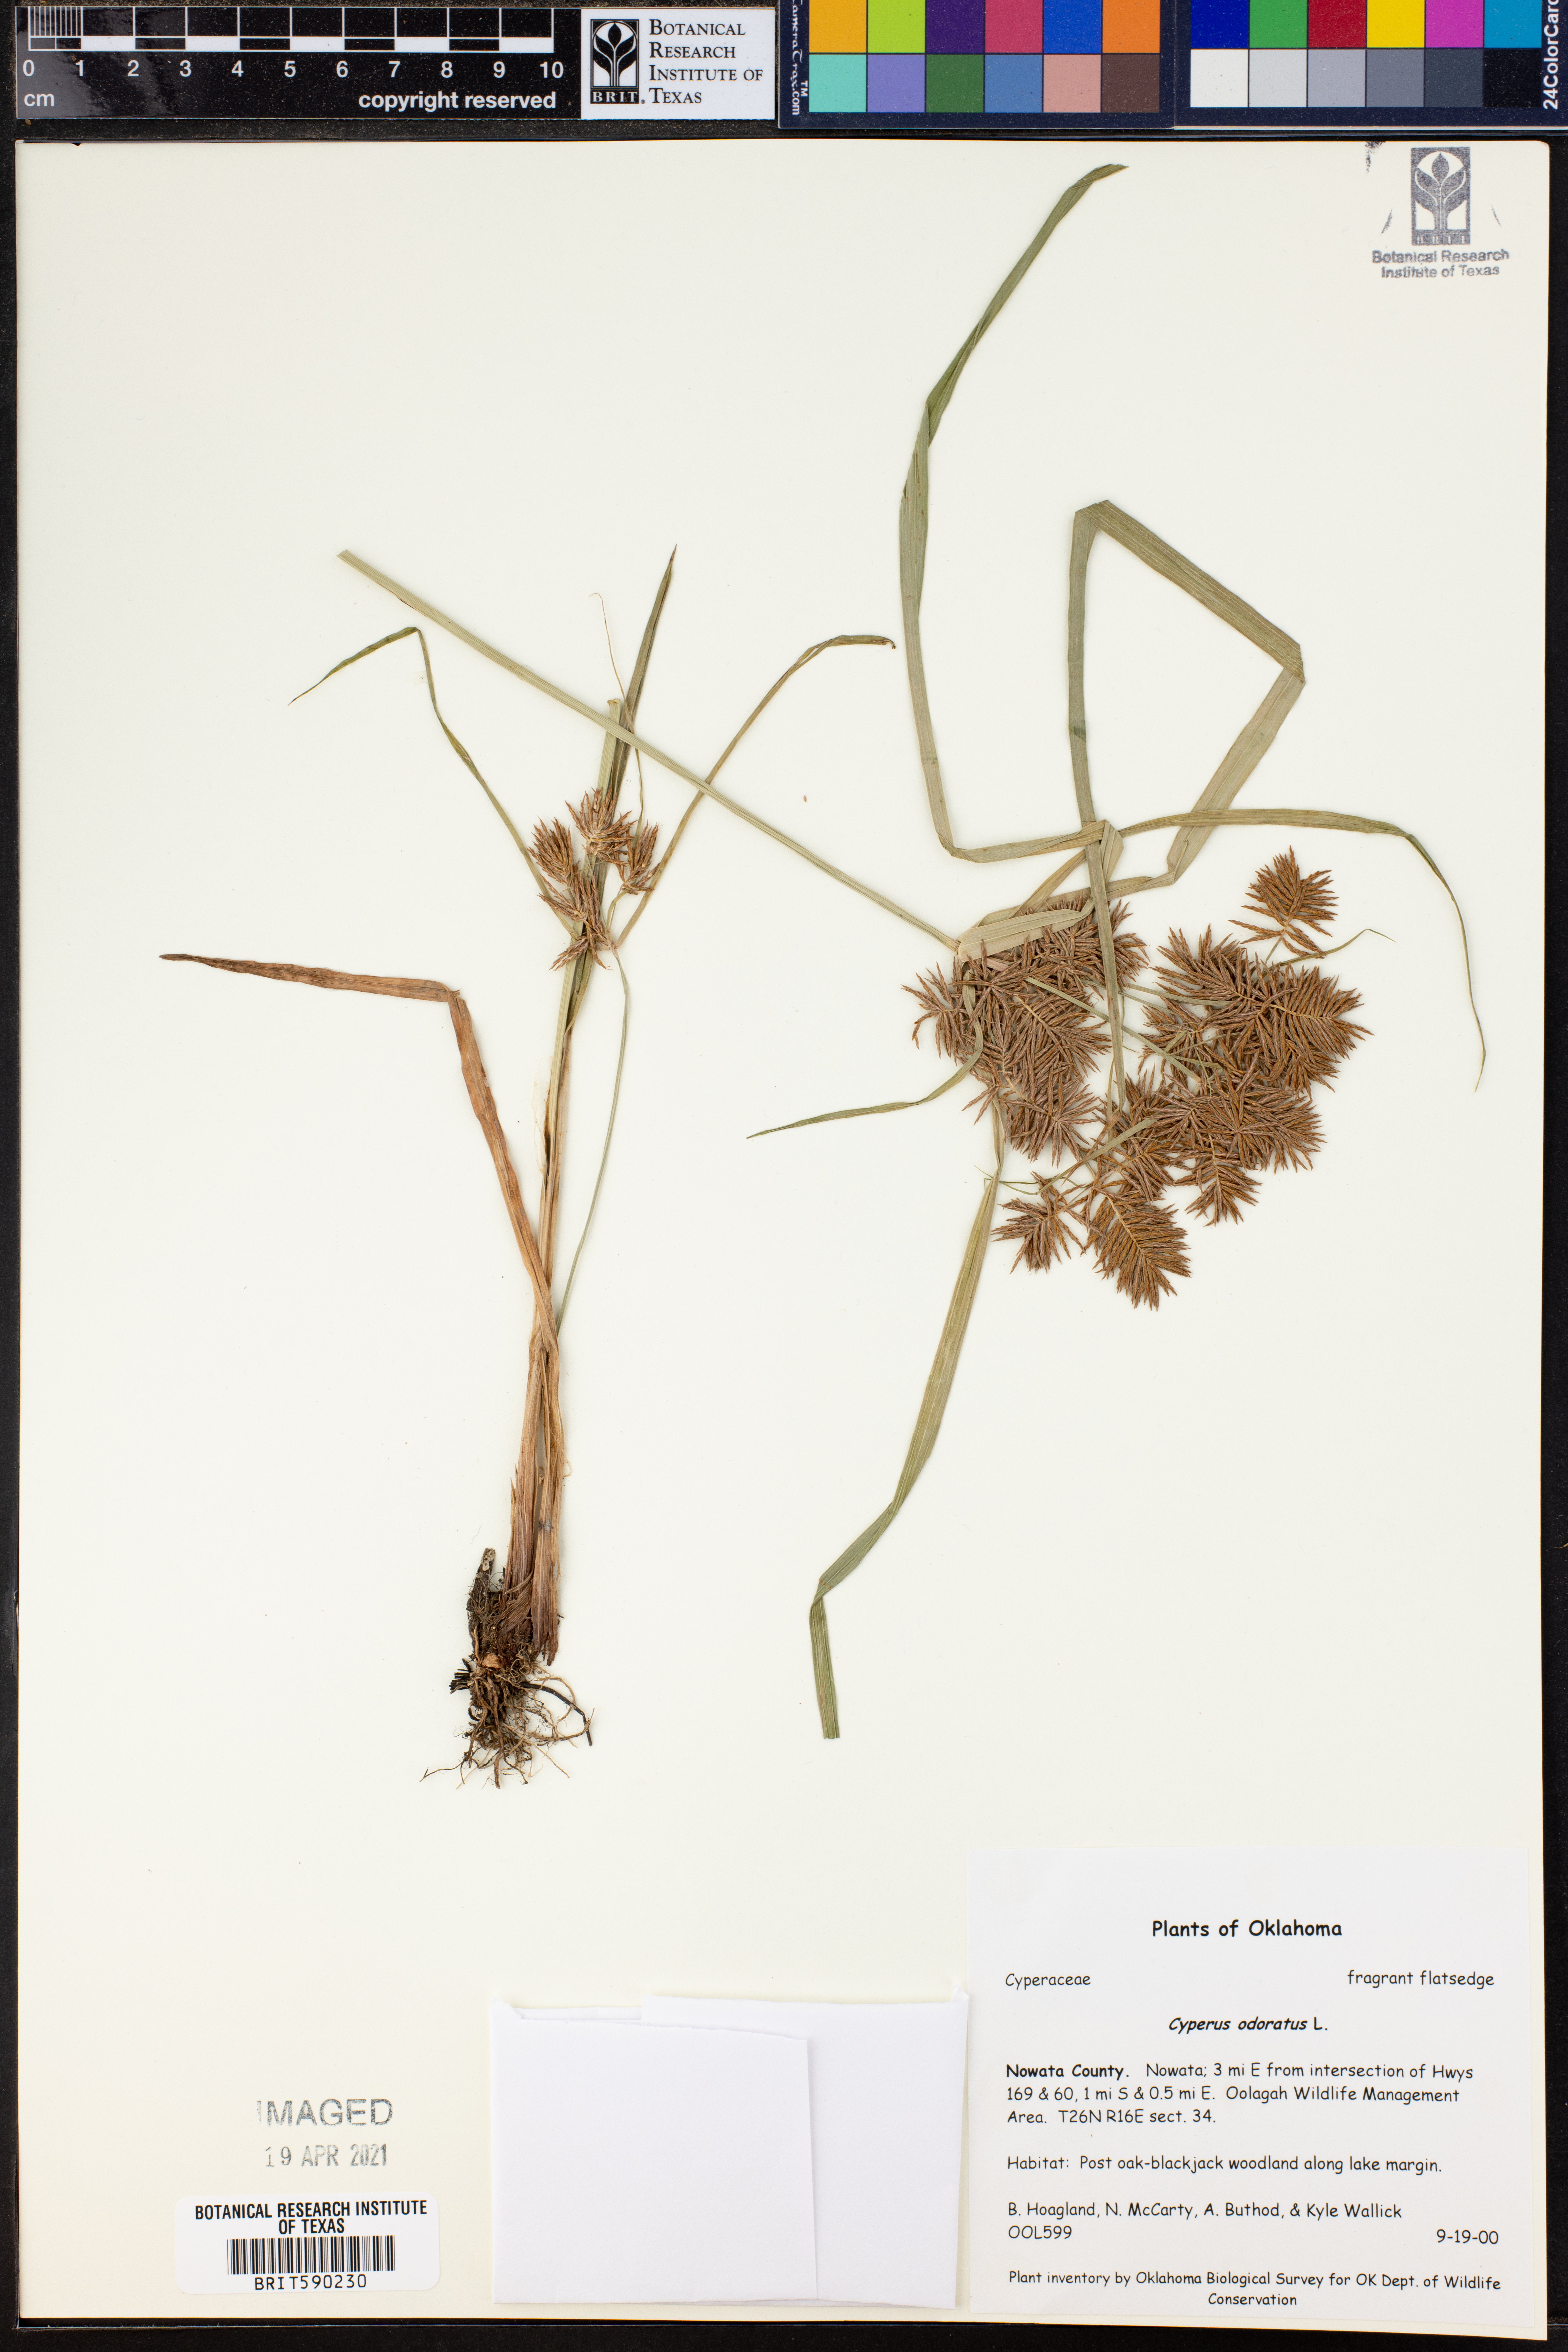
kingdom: Plantae
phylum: Tracheophyta
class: Liliopsida
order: Poales
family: Cyperaceae
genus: Cyperus
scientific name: Cyperus odoratus
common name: Fragrant flatsedge
